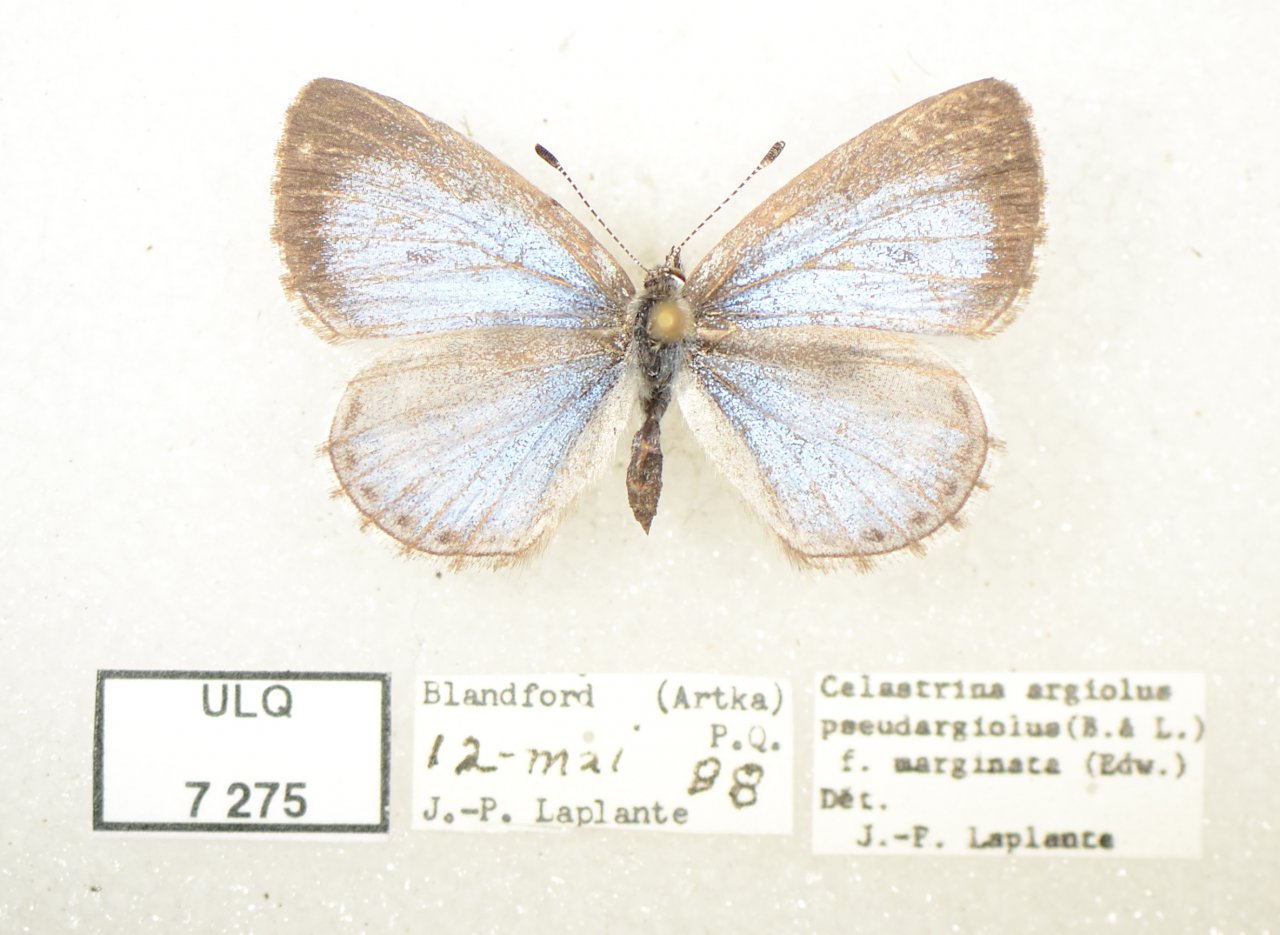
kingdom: Animalia
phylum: Arthropoda
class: Insecta
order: Lepidoptera
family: Lycaenidae
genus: Celastrina
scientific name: Celastrina lucia
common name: Northern Spring Azure
